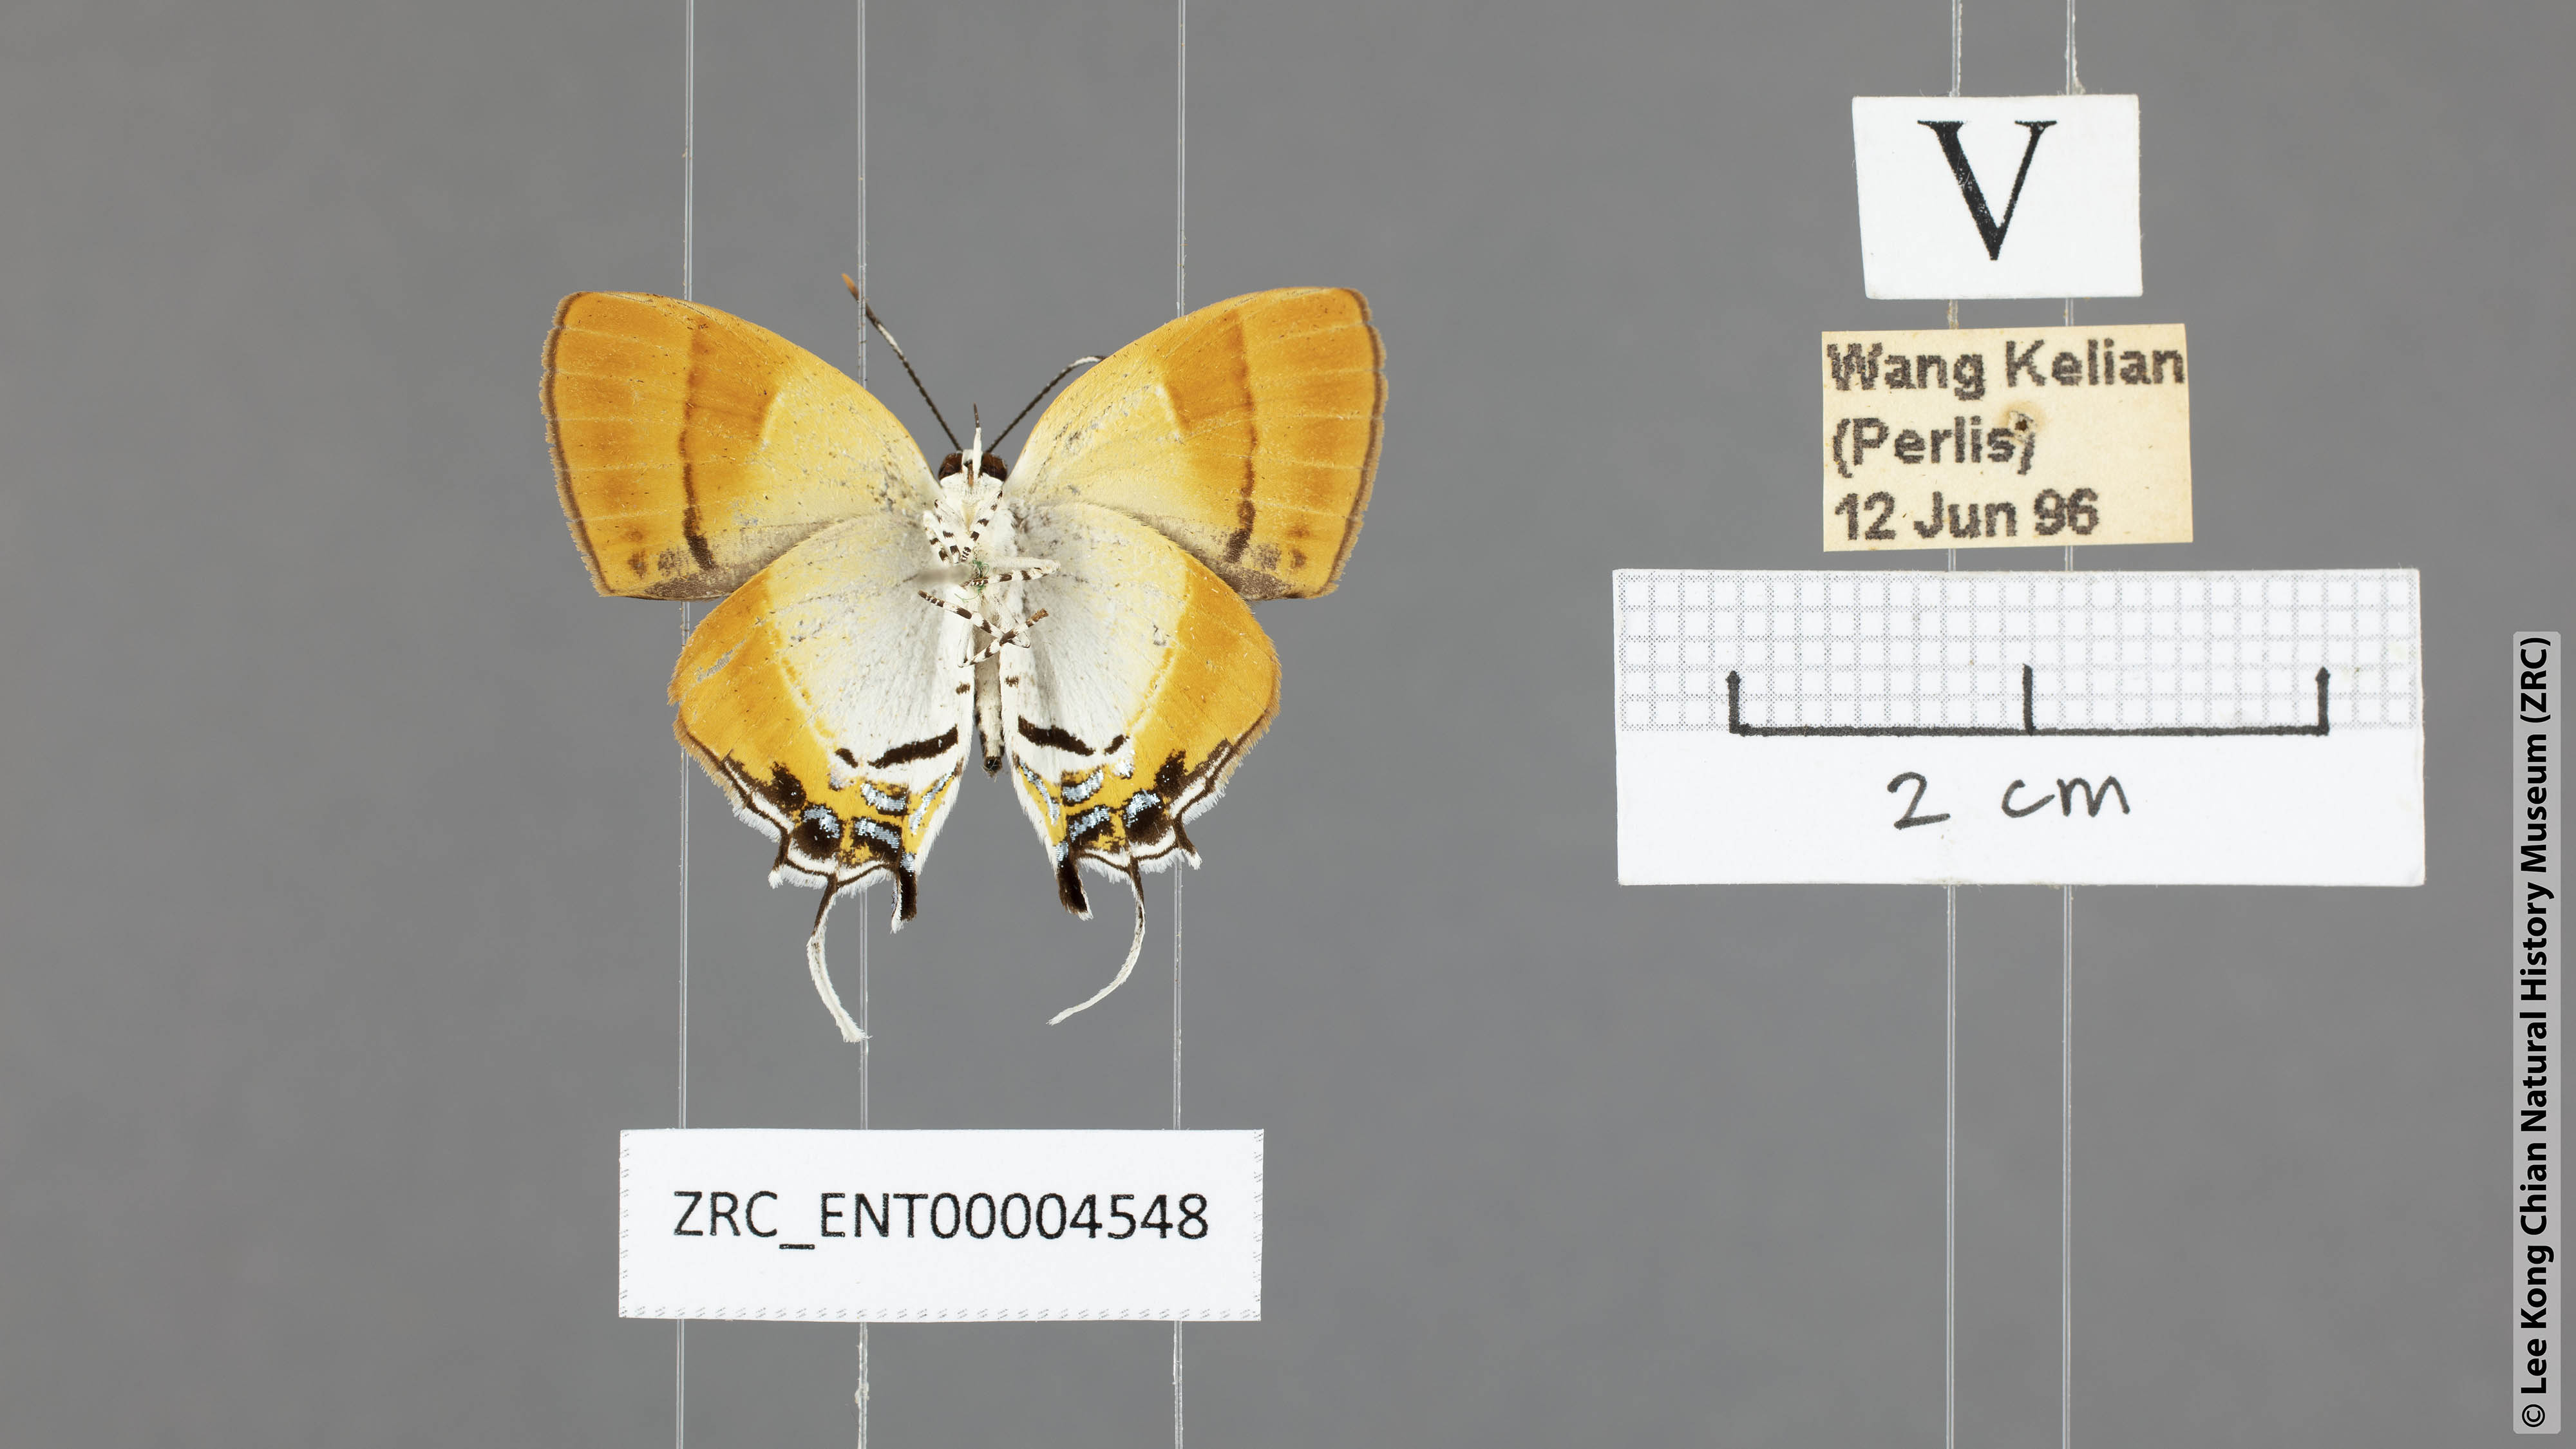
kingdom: Animalia
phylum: Arthropoda
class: Insecta
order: Lepidoptera
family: Lycaenidae
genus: Sithon
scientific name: Sithon nedymond
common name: Plush
